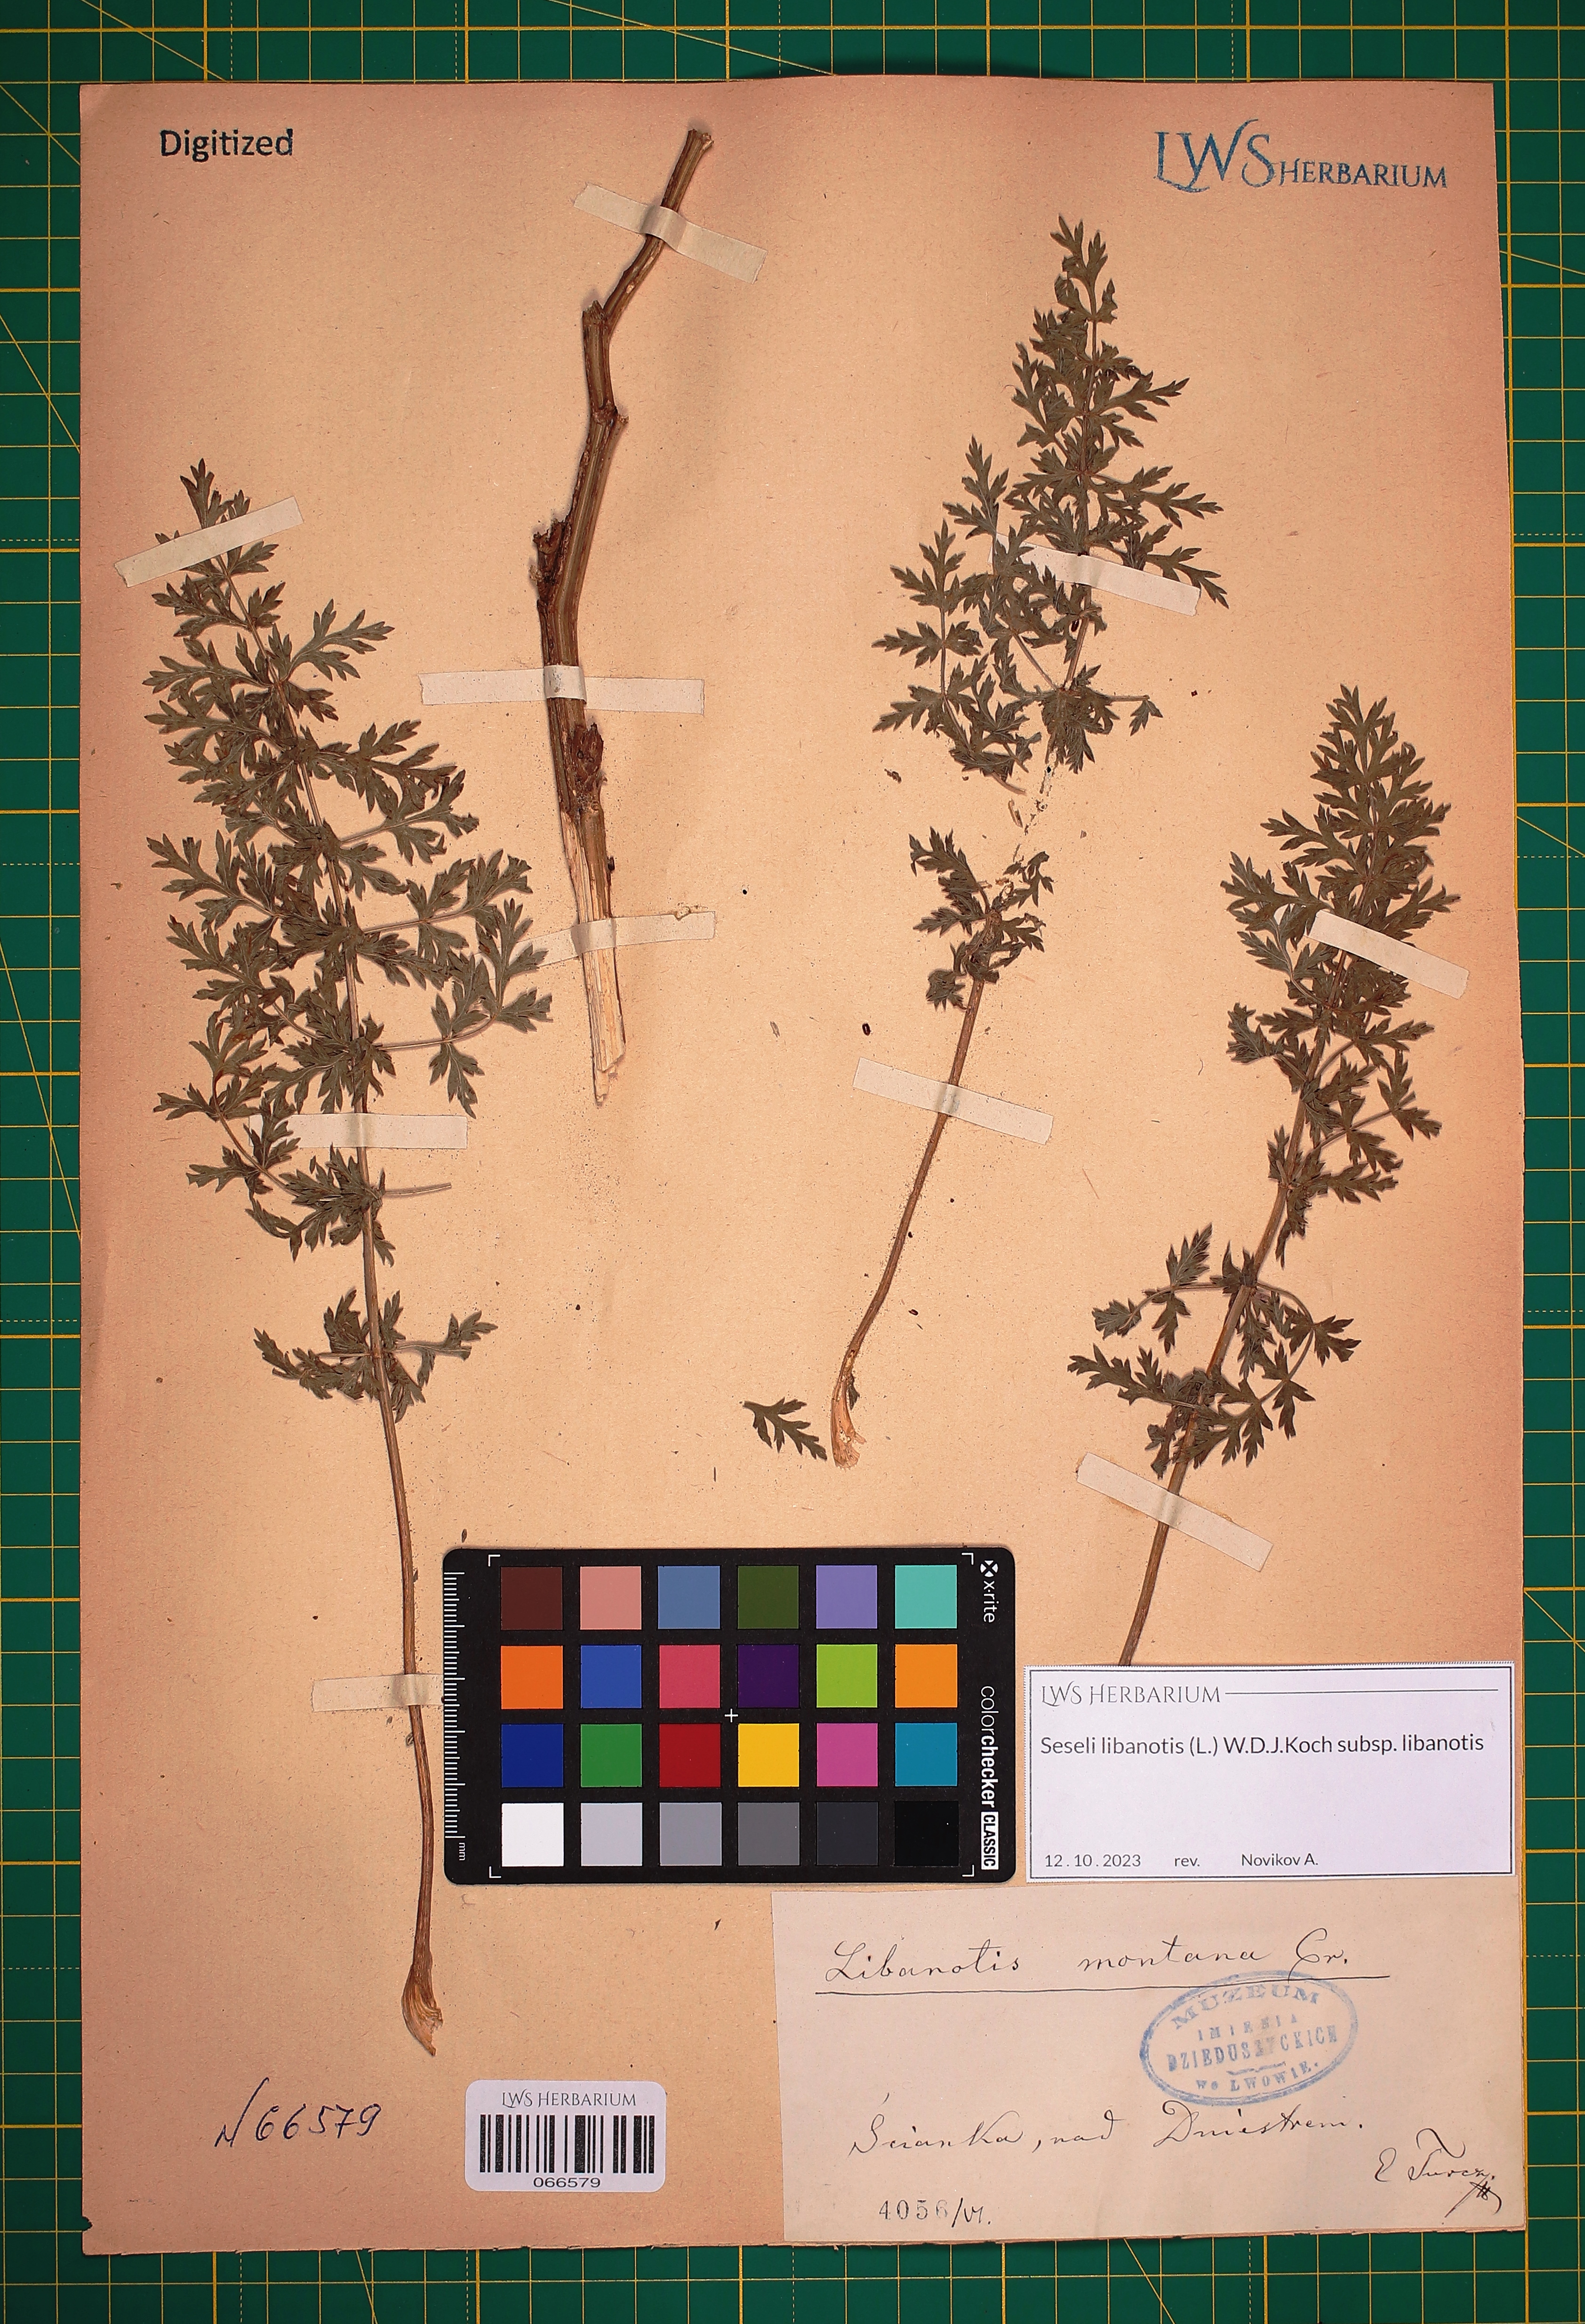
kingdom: Plantae
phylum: Tracheophyta
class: Magnoliopsida
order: Apiales
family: Apiaceae
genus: Seseli
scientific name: Seseli libanotis
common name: Mooncarrot
